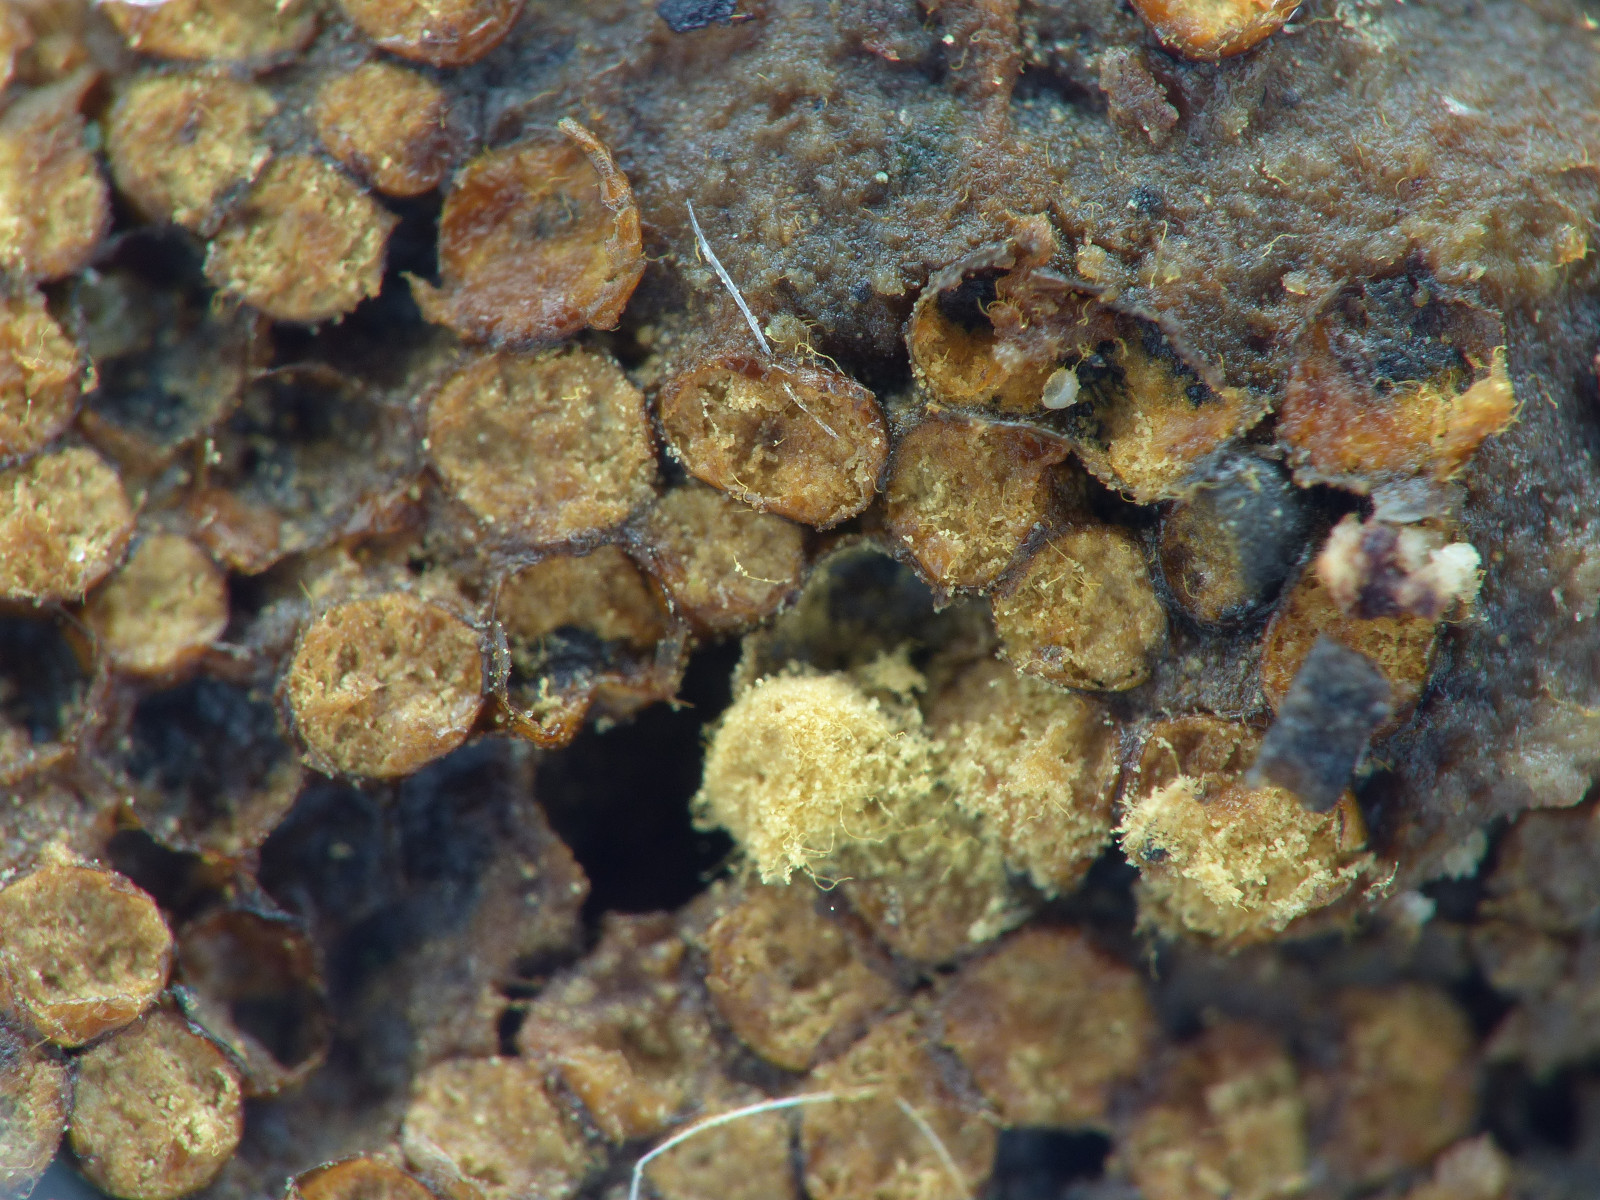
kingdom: Protozoa
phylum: Mycetozoa
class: Myxomycetes
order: Trichiales
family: Trichiaceae
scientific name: Trichiaceae
